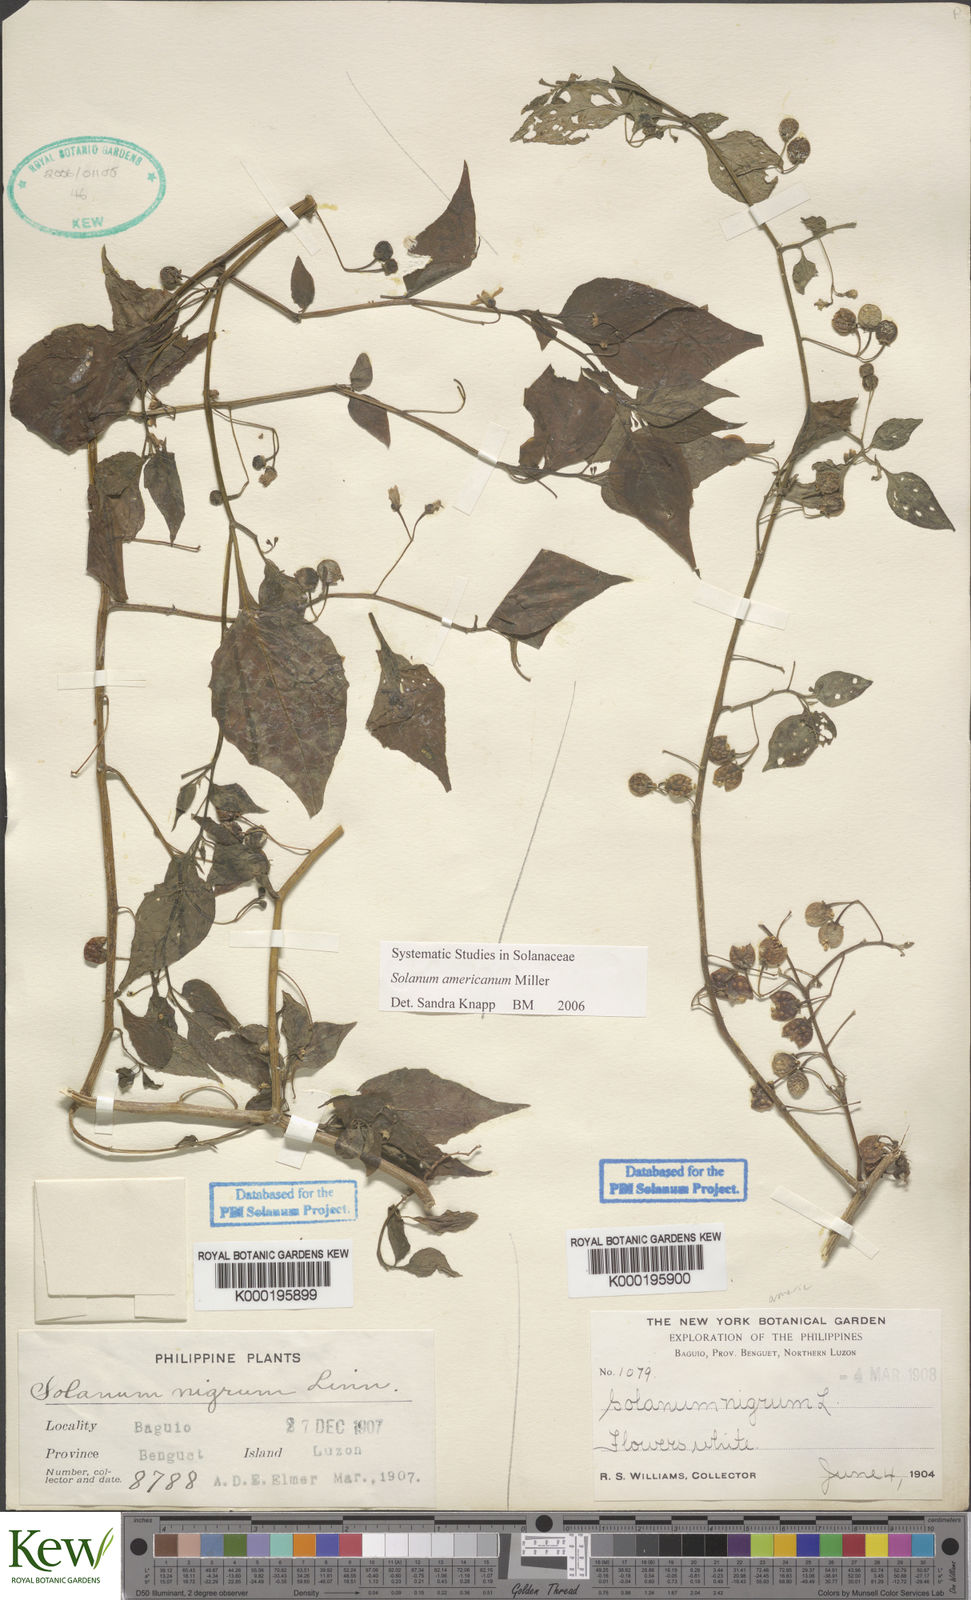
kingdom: Plantae
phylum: Tracheophyta
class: Magnoliopsida
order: Solanales
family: Solanaceae
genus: Solanum
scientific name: Solanum americanum
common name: American black nightshade
